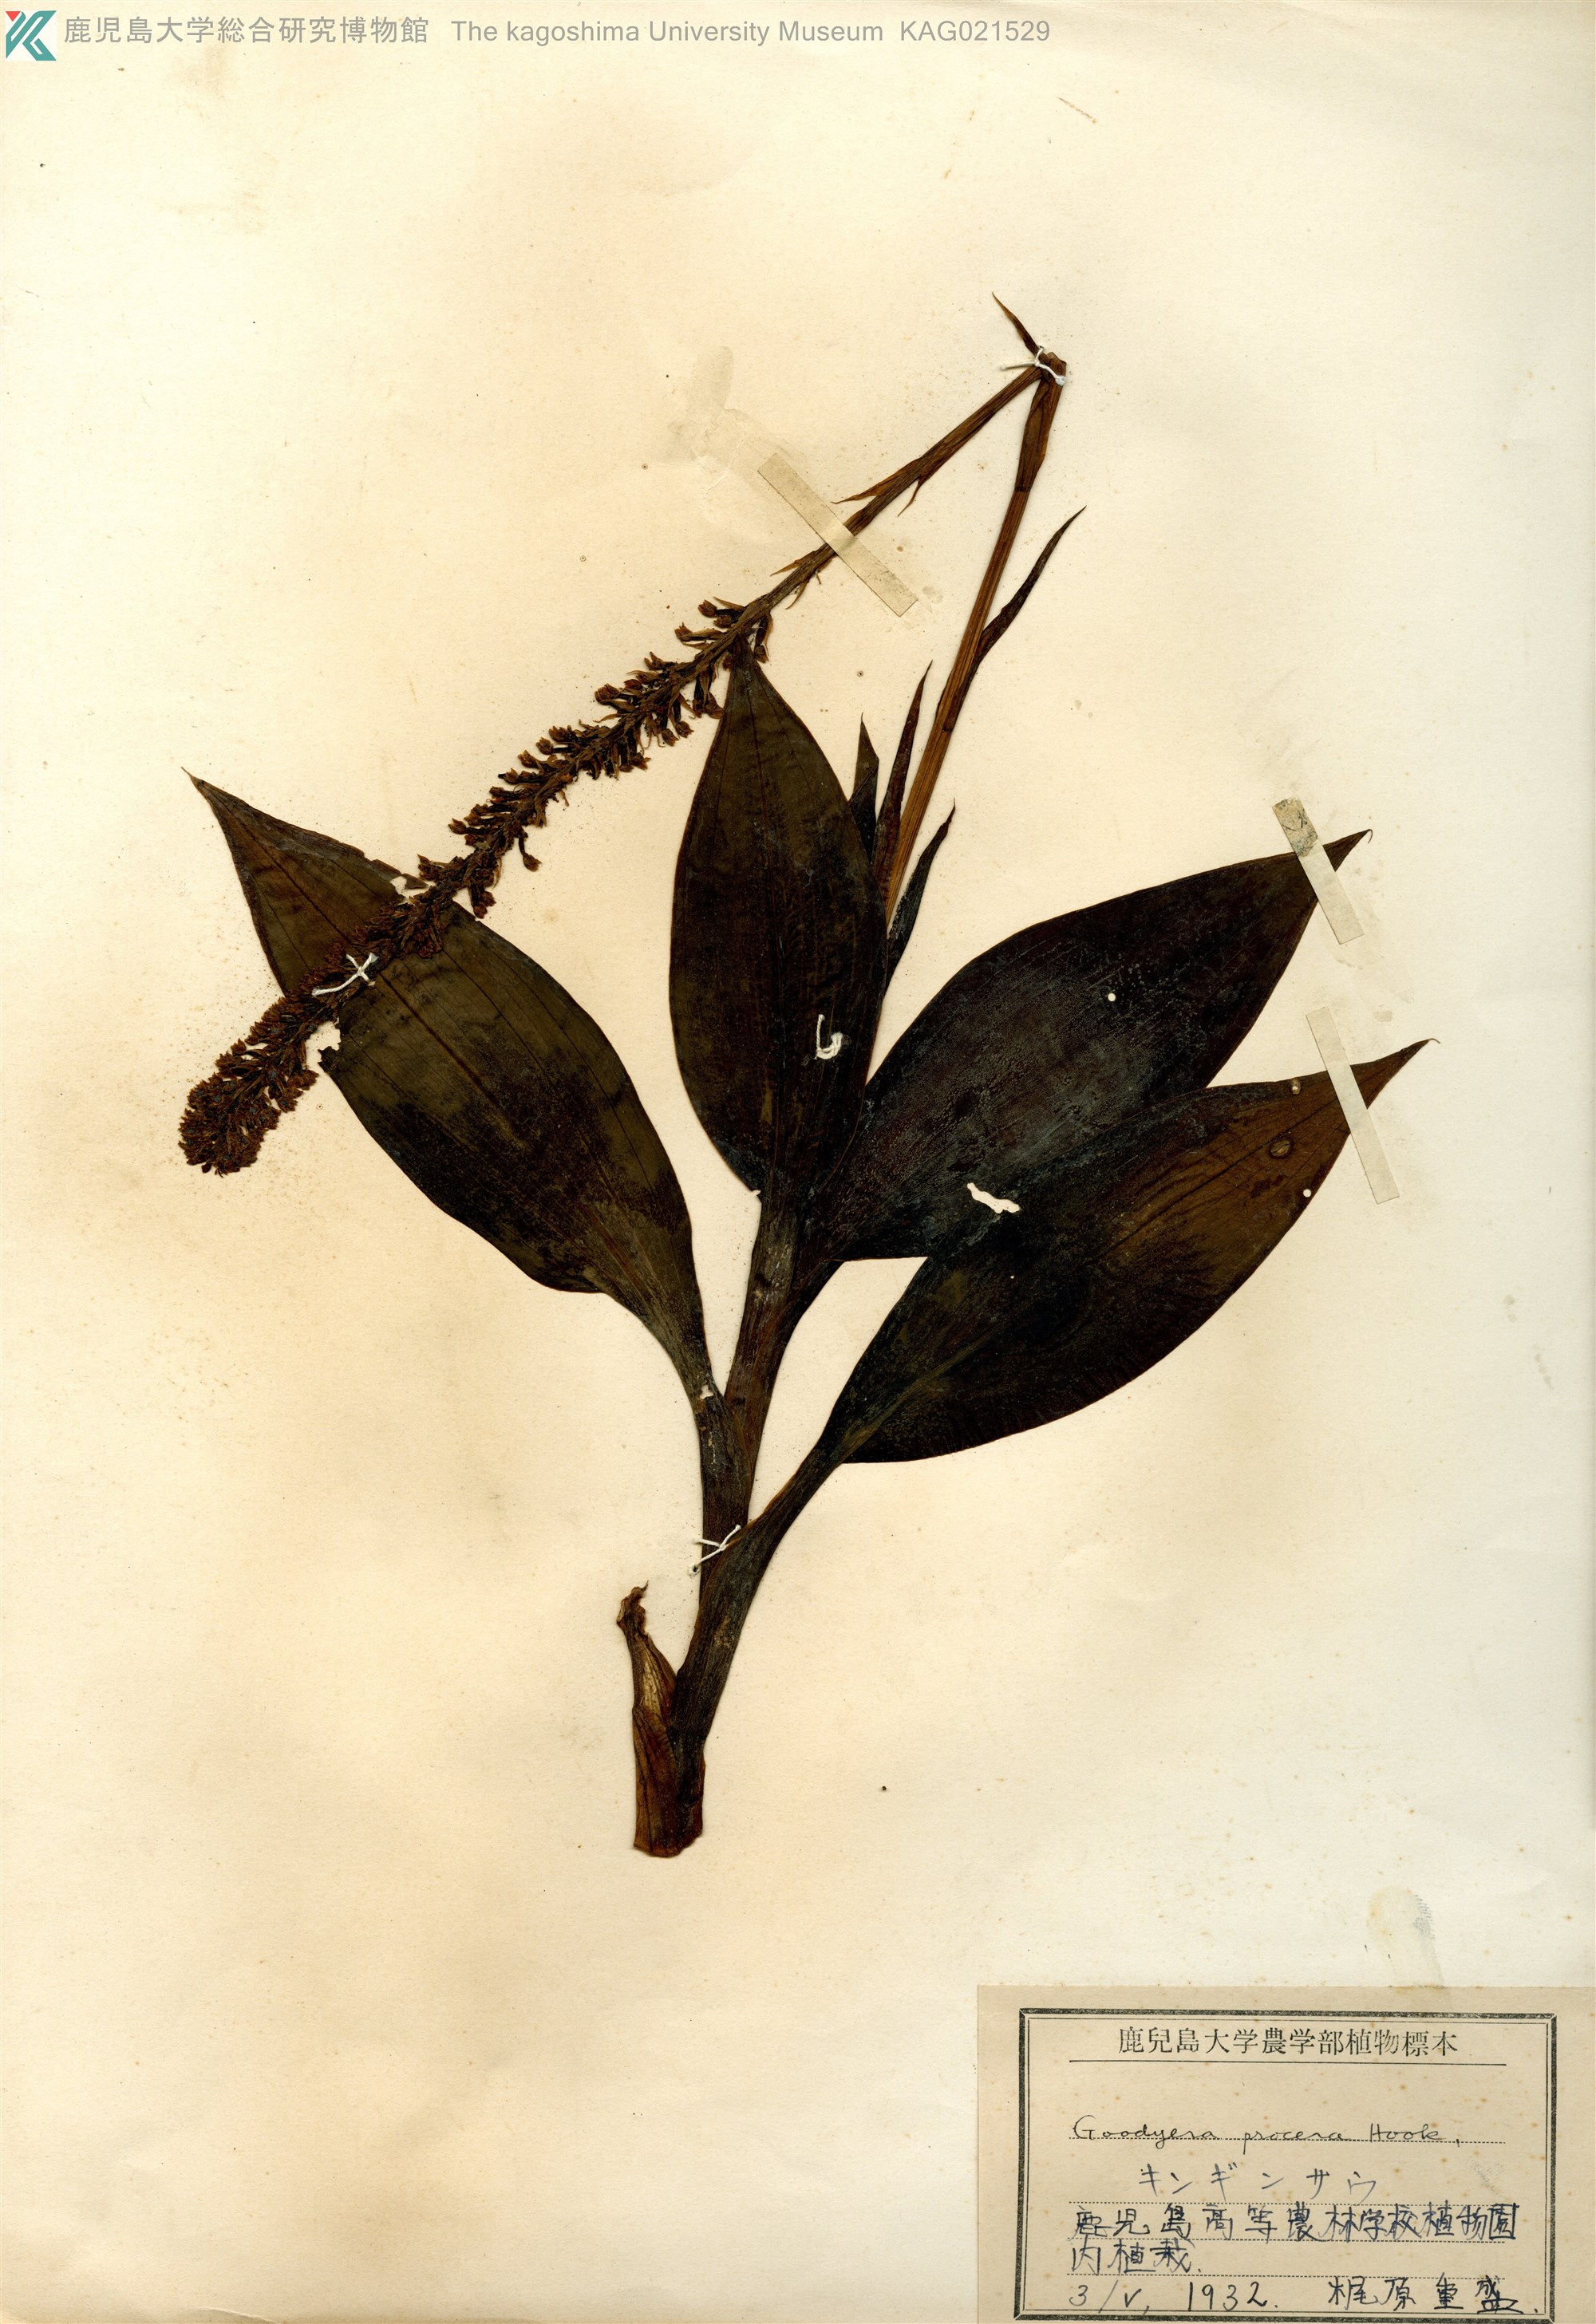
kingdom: Plantae
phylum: Tracheophyta
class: Liliopsida
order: Asparagales
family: Orchidaceae
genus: Goodyera
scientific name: Goodyera procera
